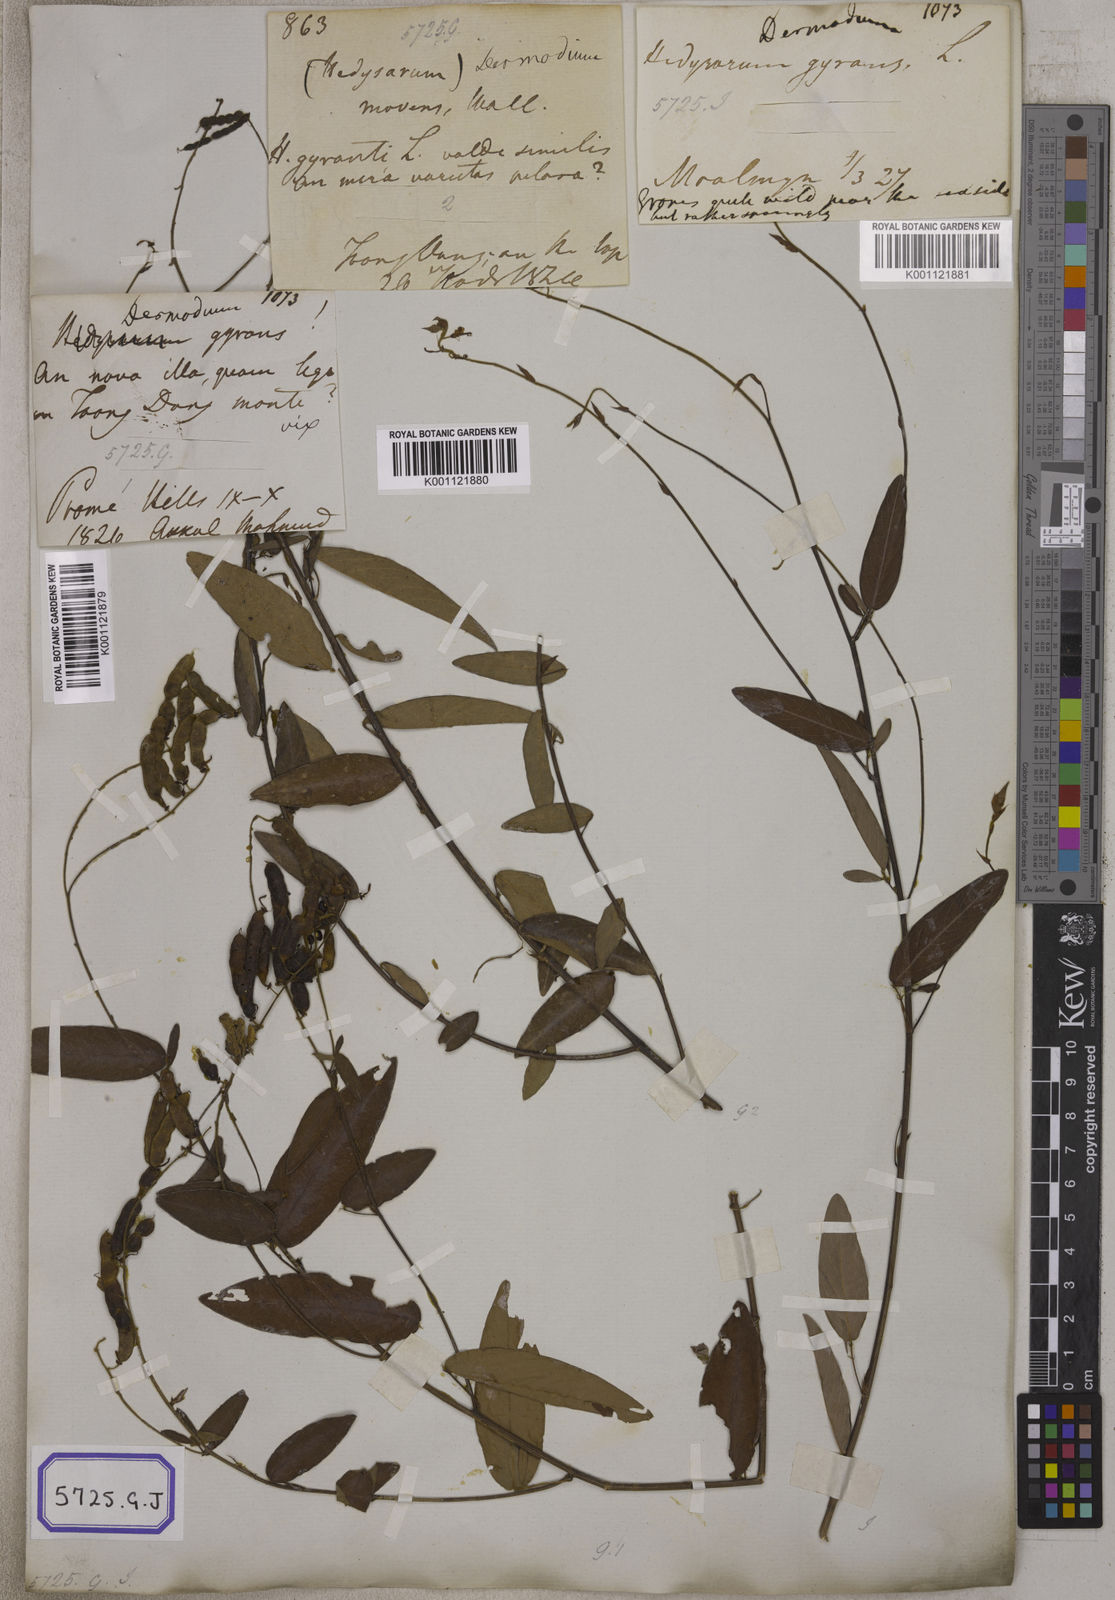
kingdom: Plantae
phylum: Tracheophyta
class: Magnoliopsida
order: Fabales
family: Fabaceae
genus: Codariocalyx
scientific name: Codariocalyx motorius
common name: Telegraph-plant
